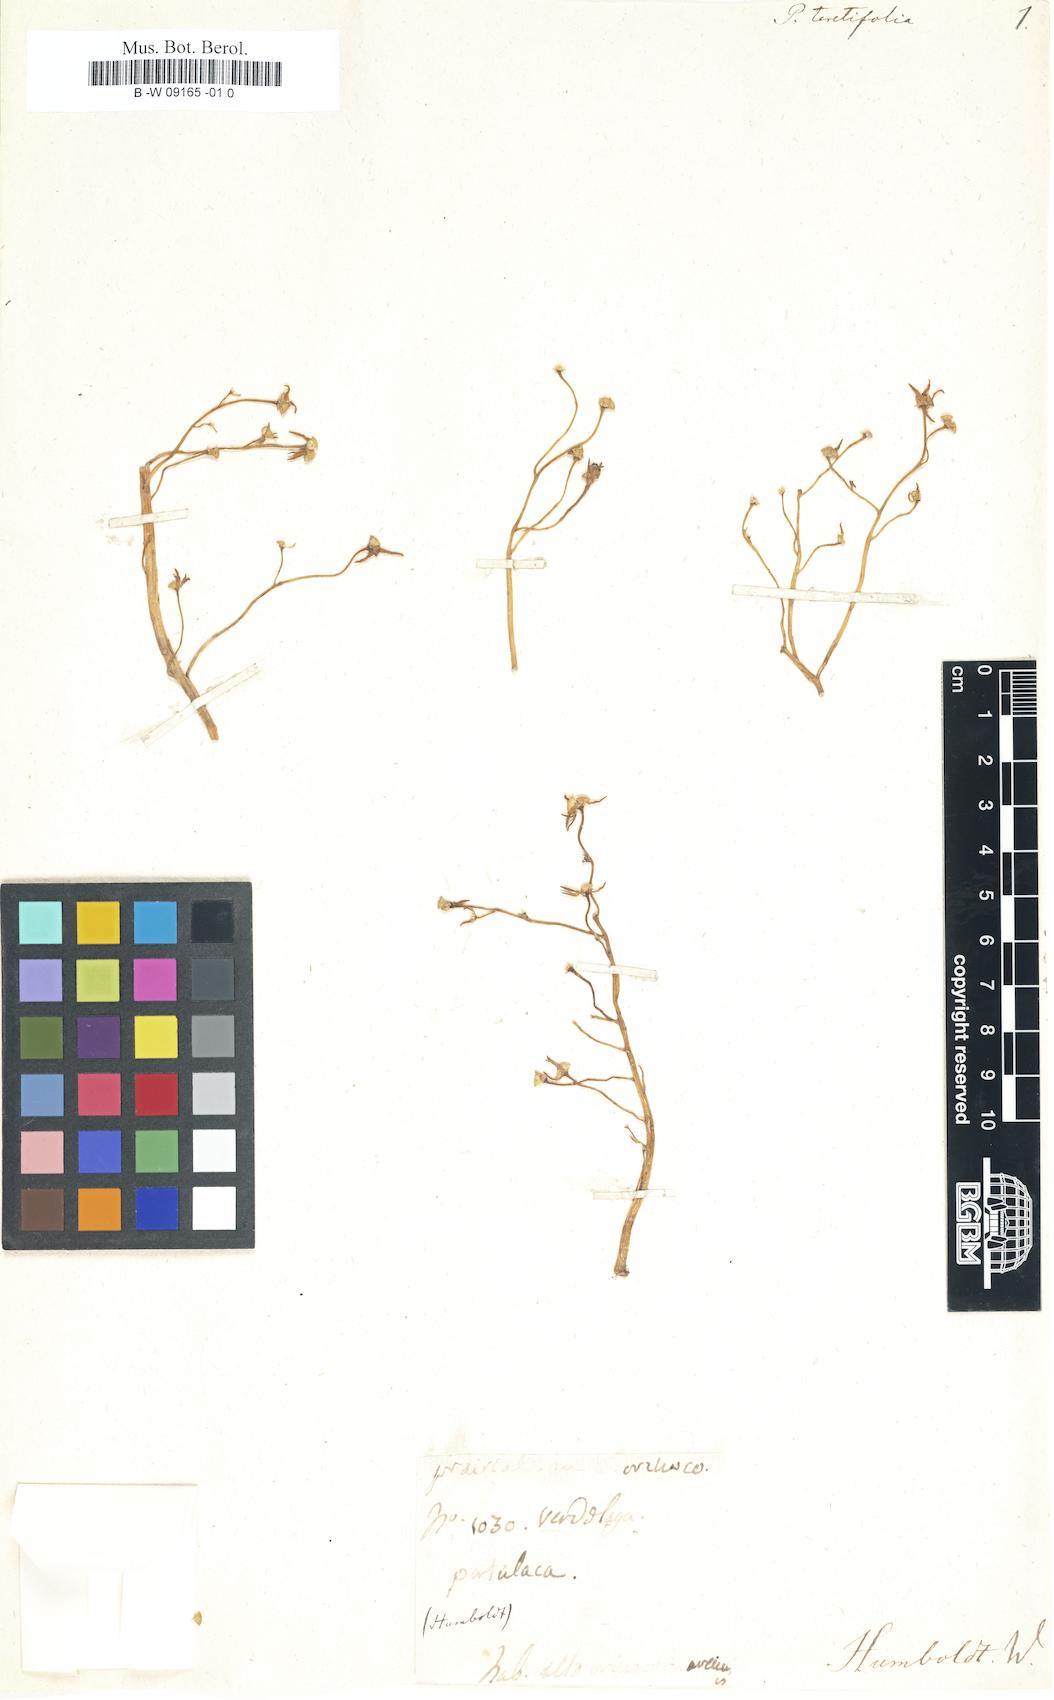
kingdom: Plantae
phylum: Tracheophyta
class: Magnoliopsida
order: Caryophyllales
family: Portulacaceae
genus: Portulaca
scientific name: Portulaca teretifolia
